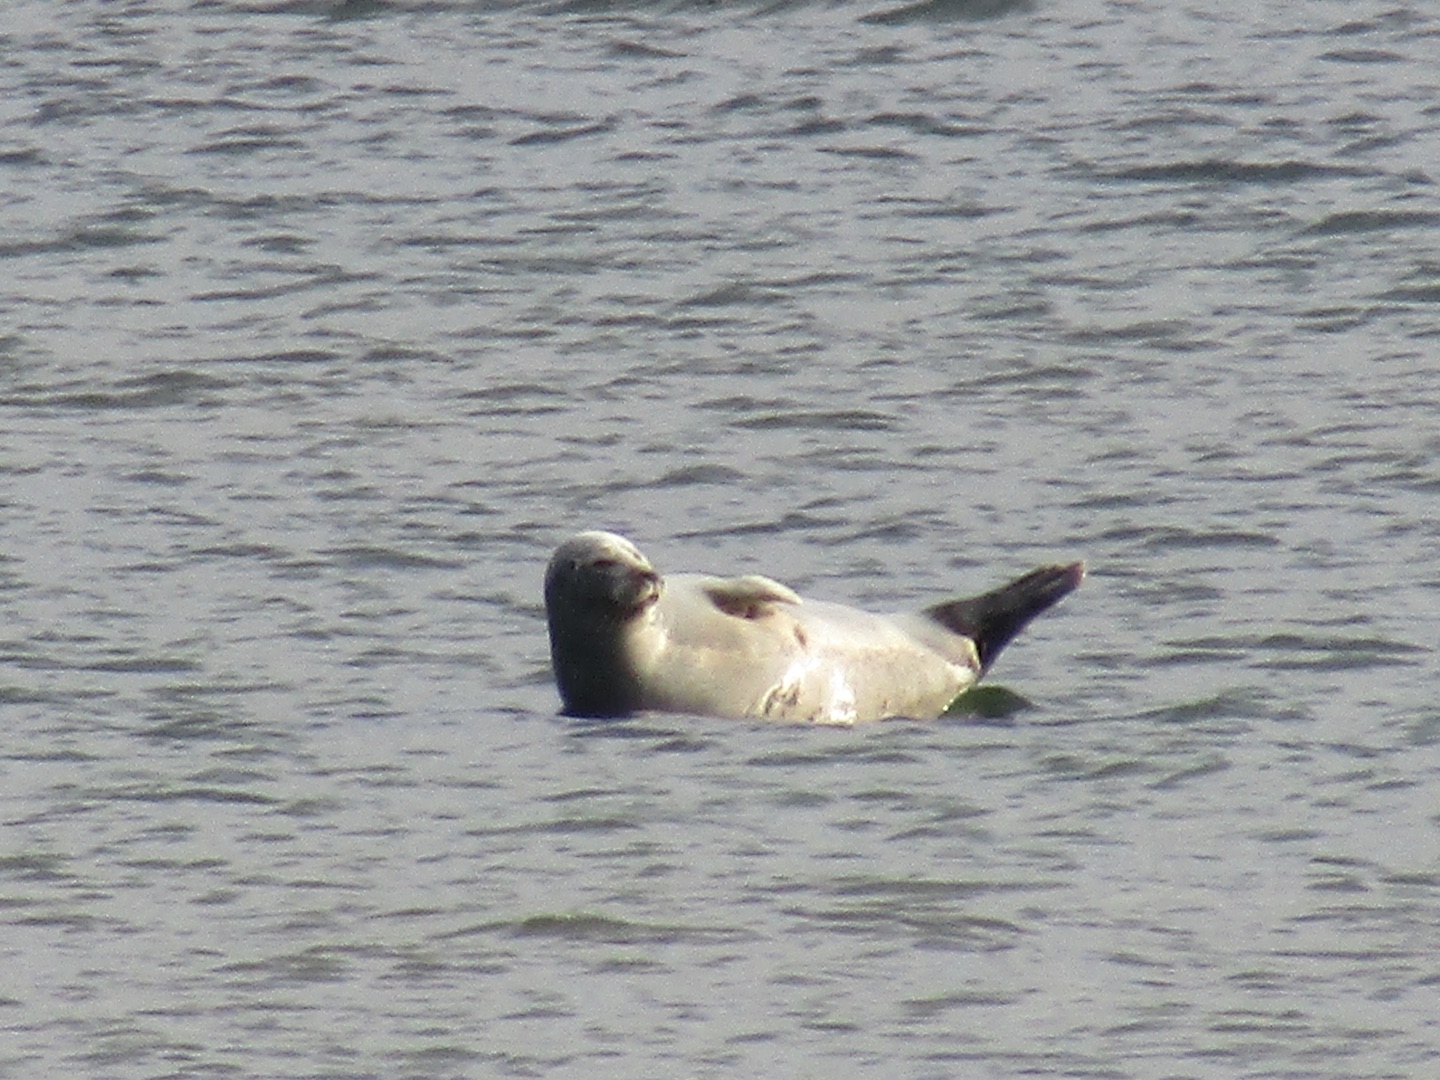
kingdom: Animalia
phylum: Chordata
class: Mammalia
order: Carnivora
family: Phocidae
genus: Phoca
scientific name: Phoca vitulina
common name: Spættet sæl
